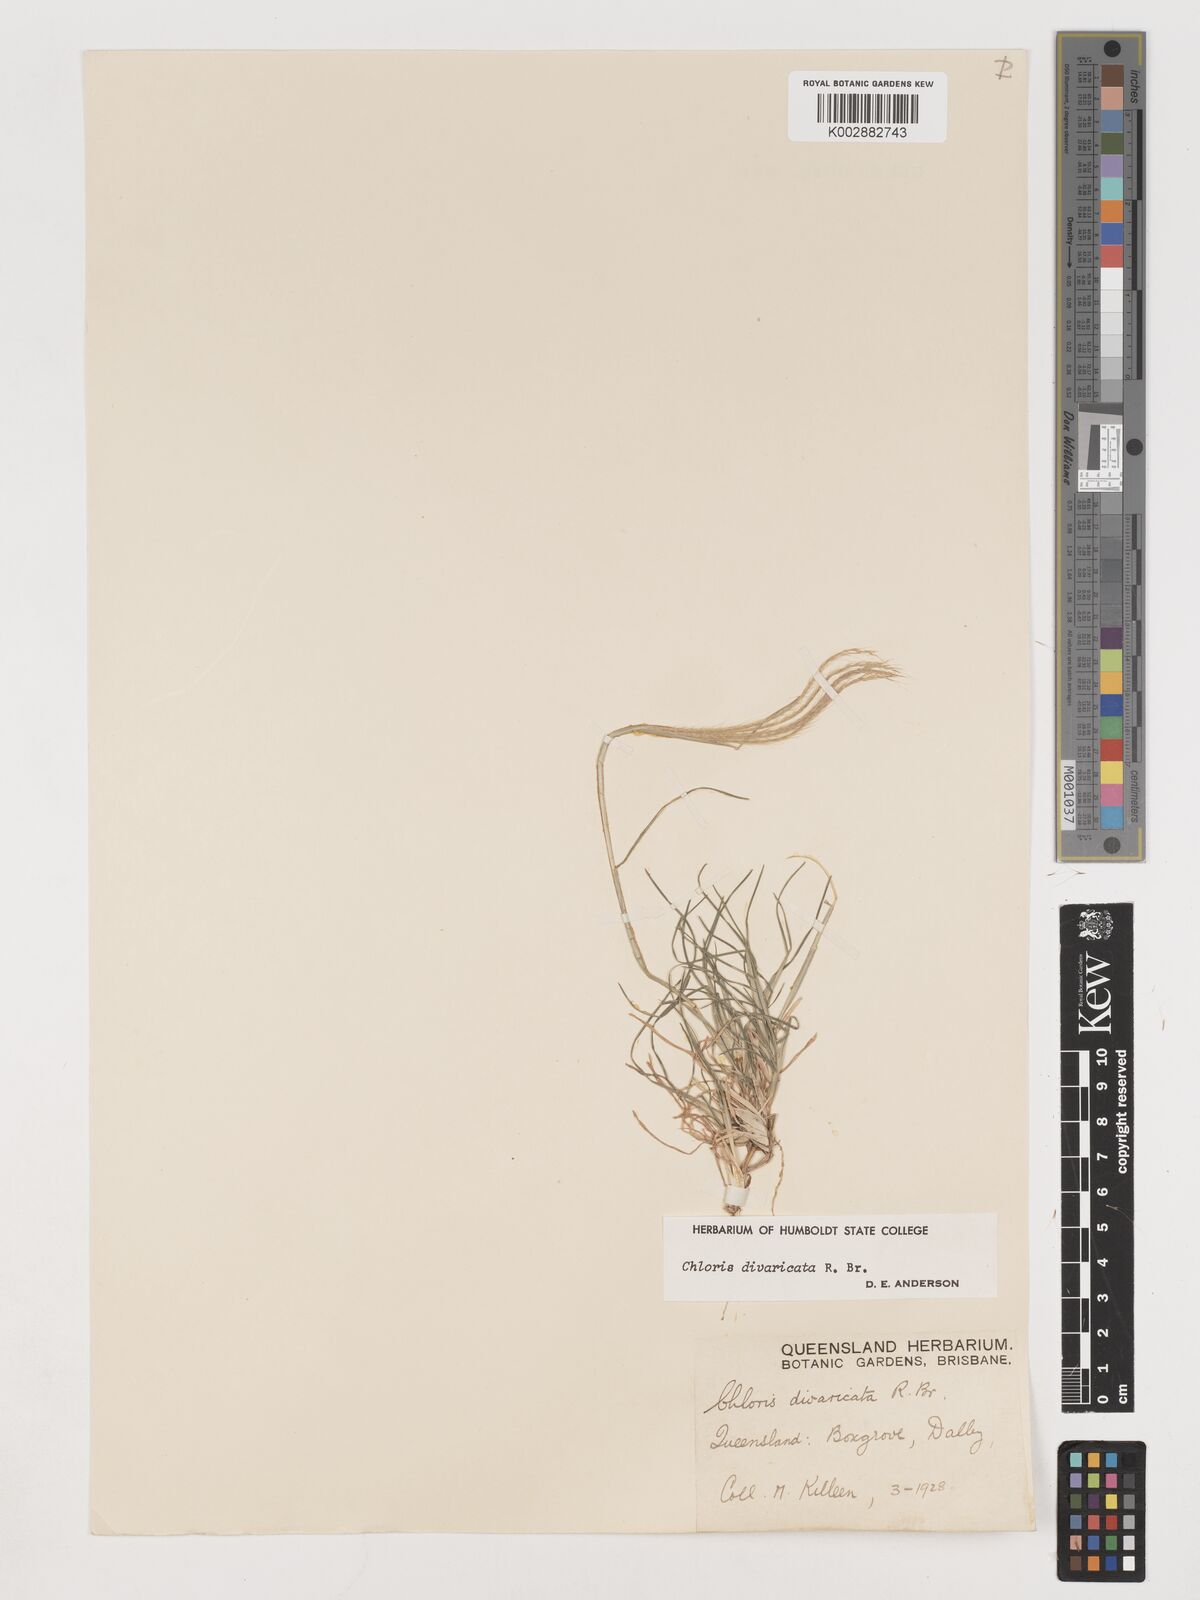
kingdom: Plantae
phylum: Tracheophyta
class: Liliopsida
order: Poales
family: Poaceae
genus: Chloris
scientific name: Chloris divaricata
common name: Spreading windmill grass
